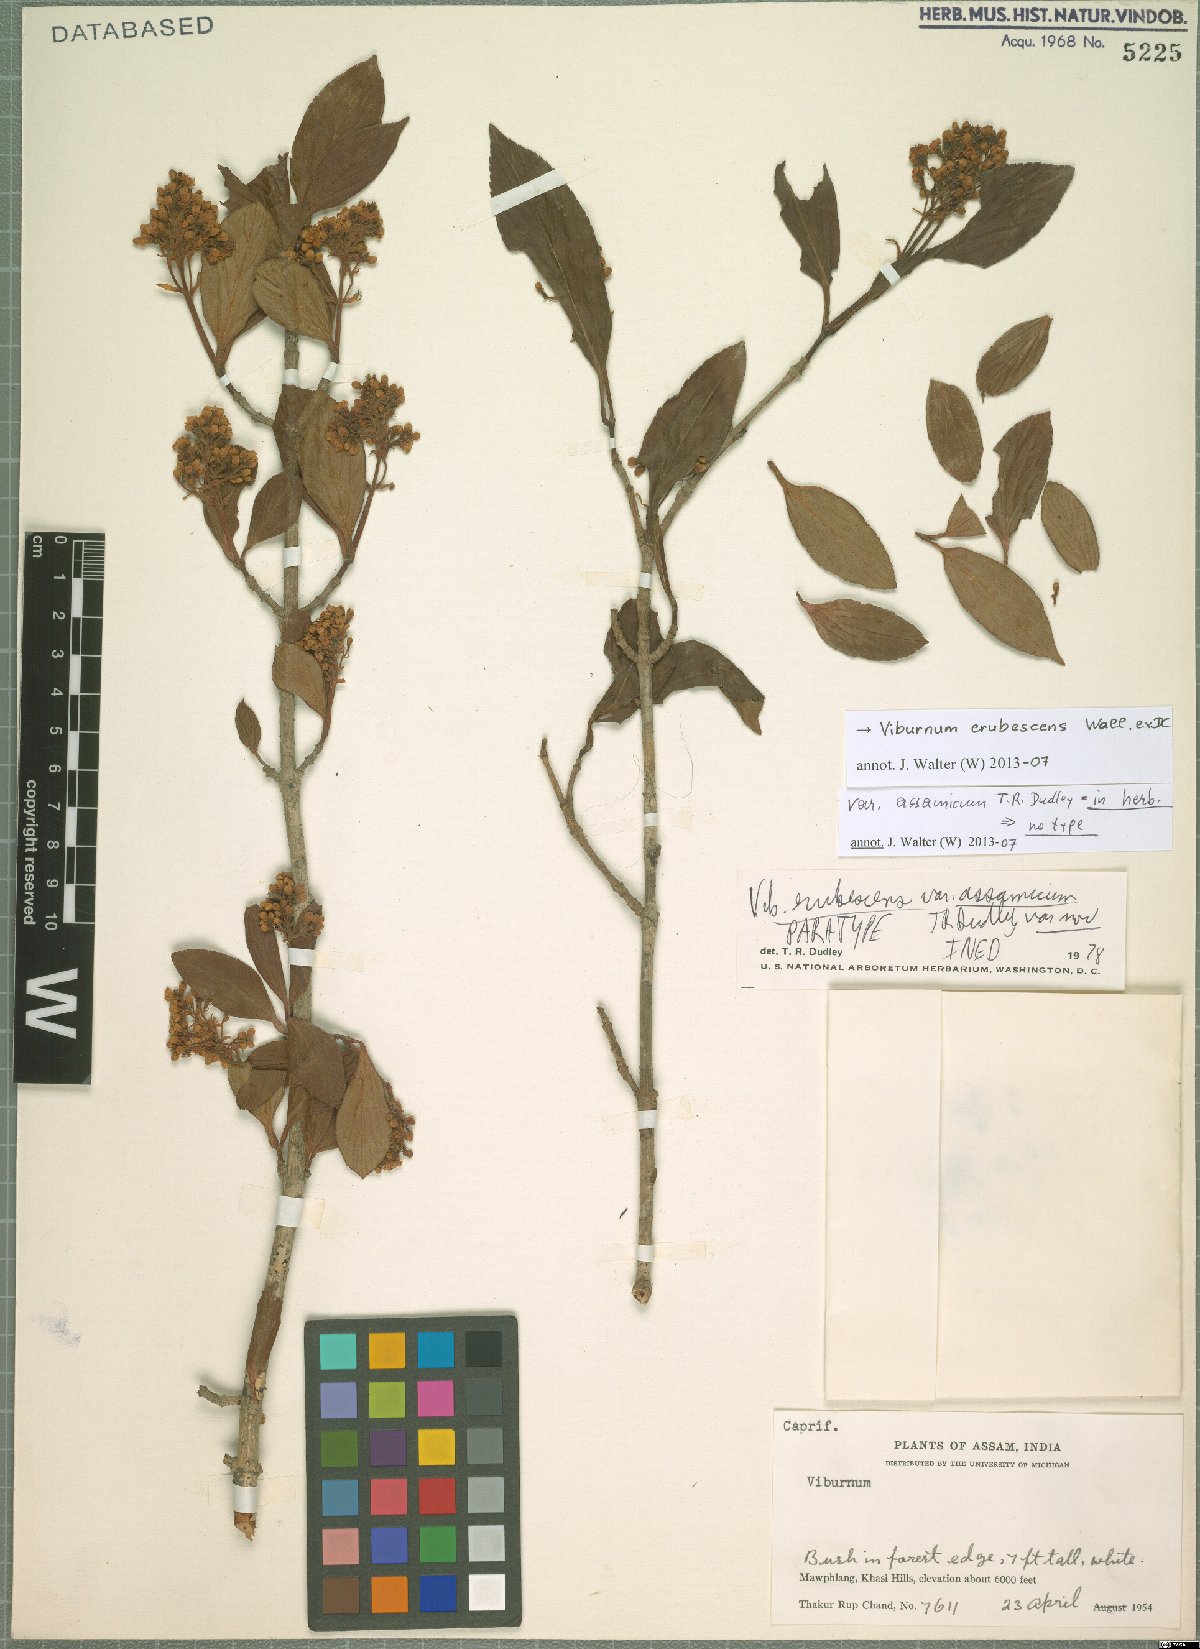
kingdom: Plantae
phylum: Tracheophyta
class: Magnoliopsida
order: Dipsacales
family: Viburnaceae
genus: Viburnum
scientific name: Viburnum erubescens
